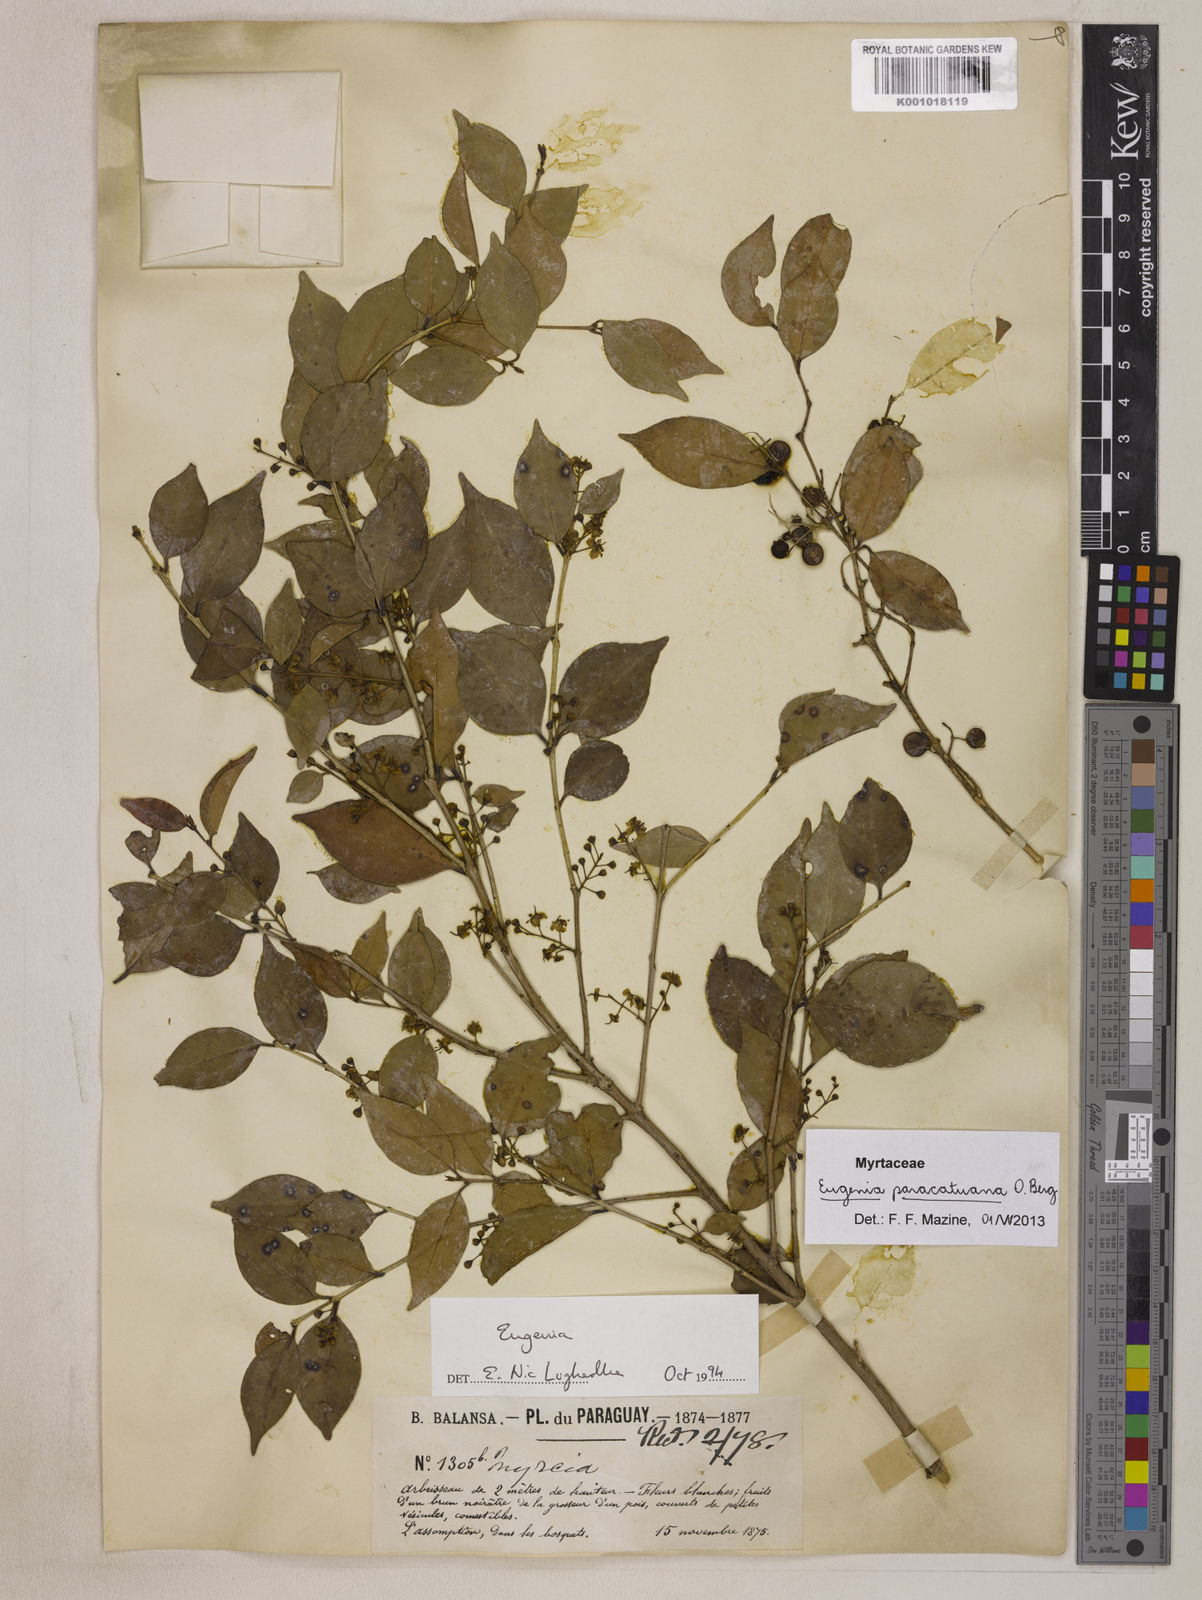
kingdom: Plantae
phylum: Tracheophyta
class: Magnoliopsida
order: Myrtales
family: Myrtaceae
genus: Eugenia
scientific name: Eugenia moraviana
